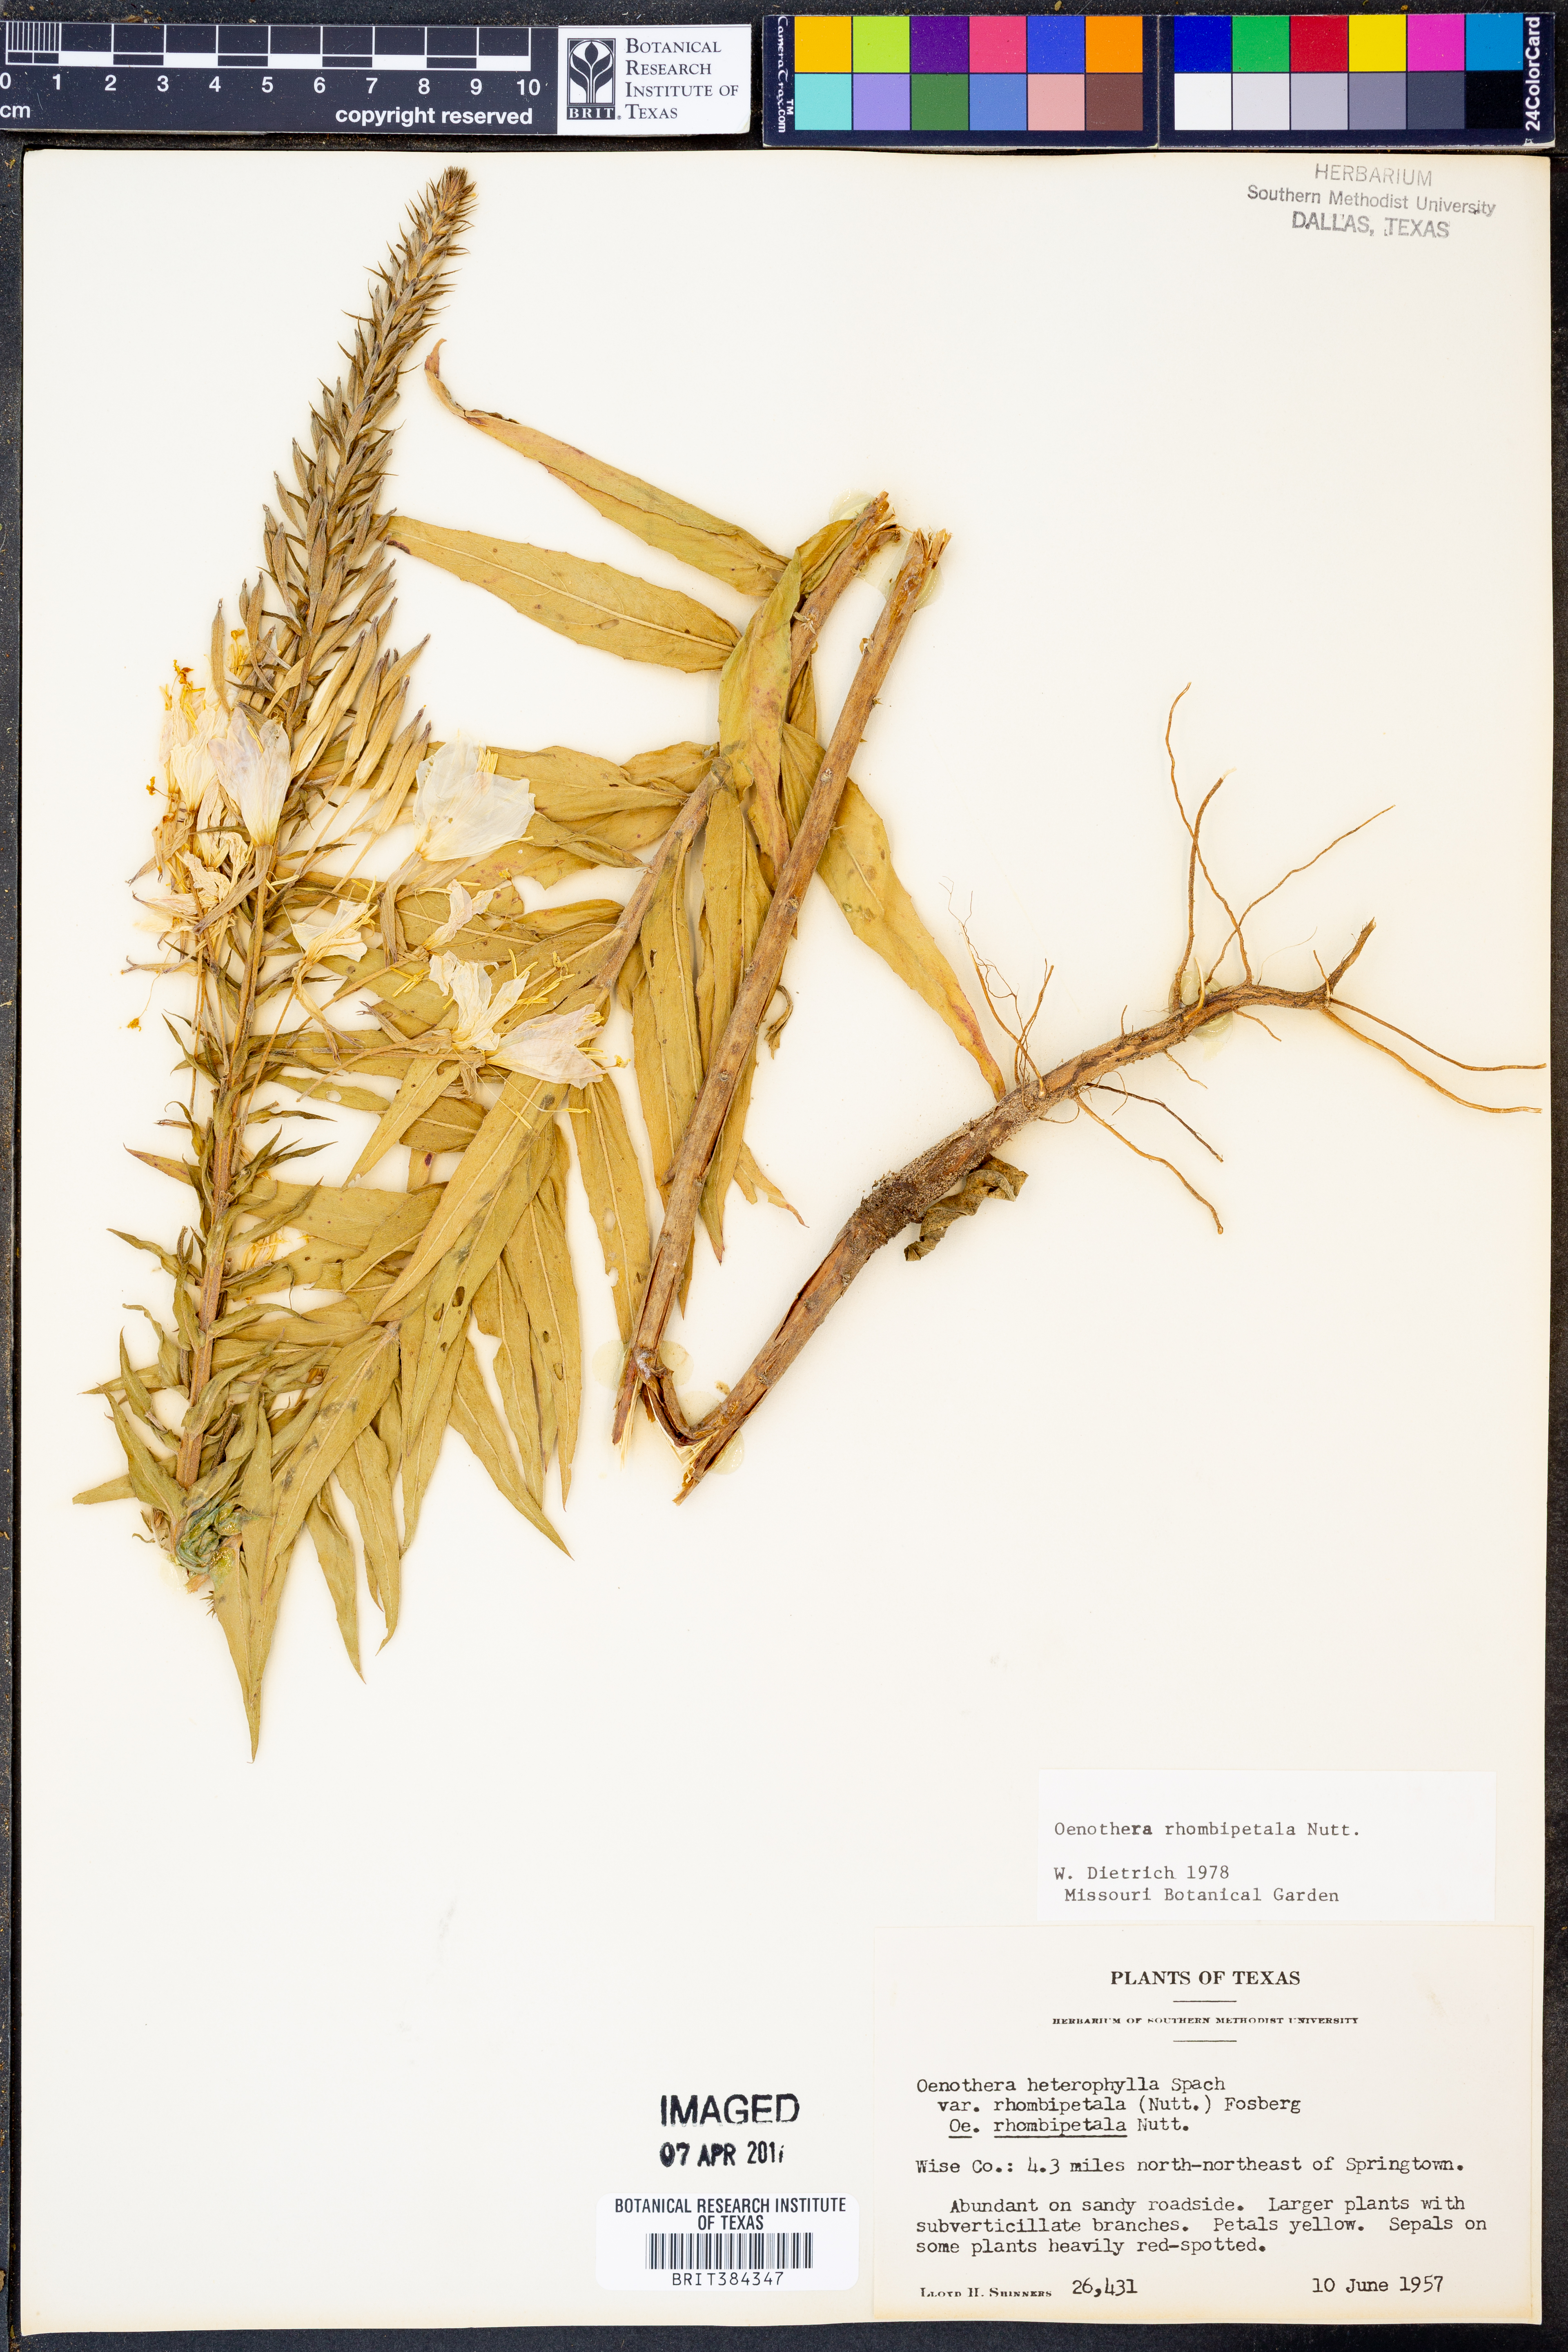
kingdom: Plantae
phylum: Tracheophyta
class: Magnoliopsida
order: Myrtales
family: Onagraceae
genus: Oenothera
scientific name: Oenothera rhombipetala
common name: Four-points evening-primrose
